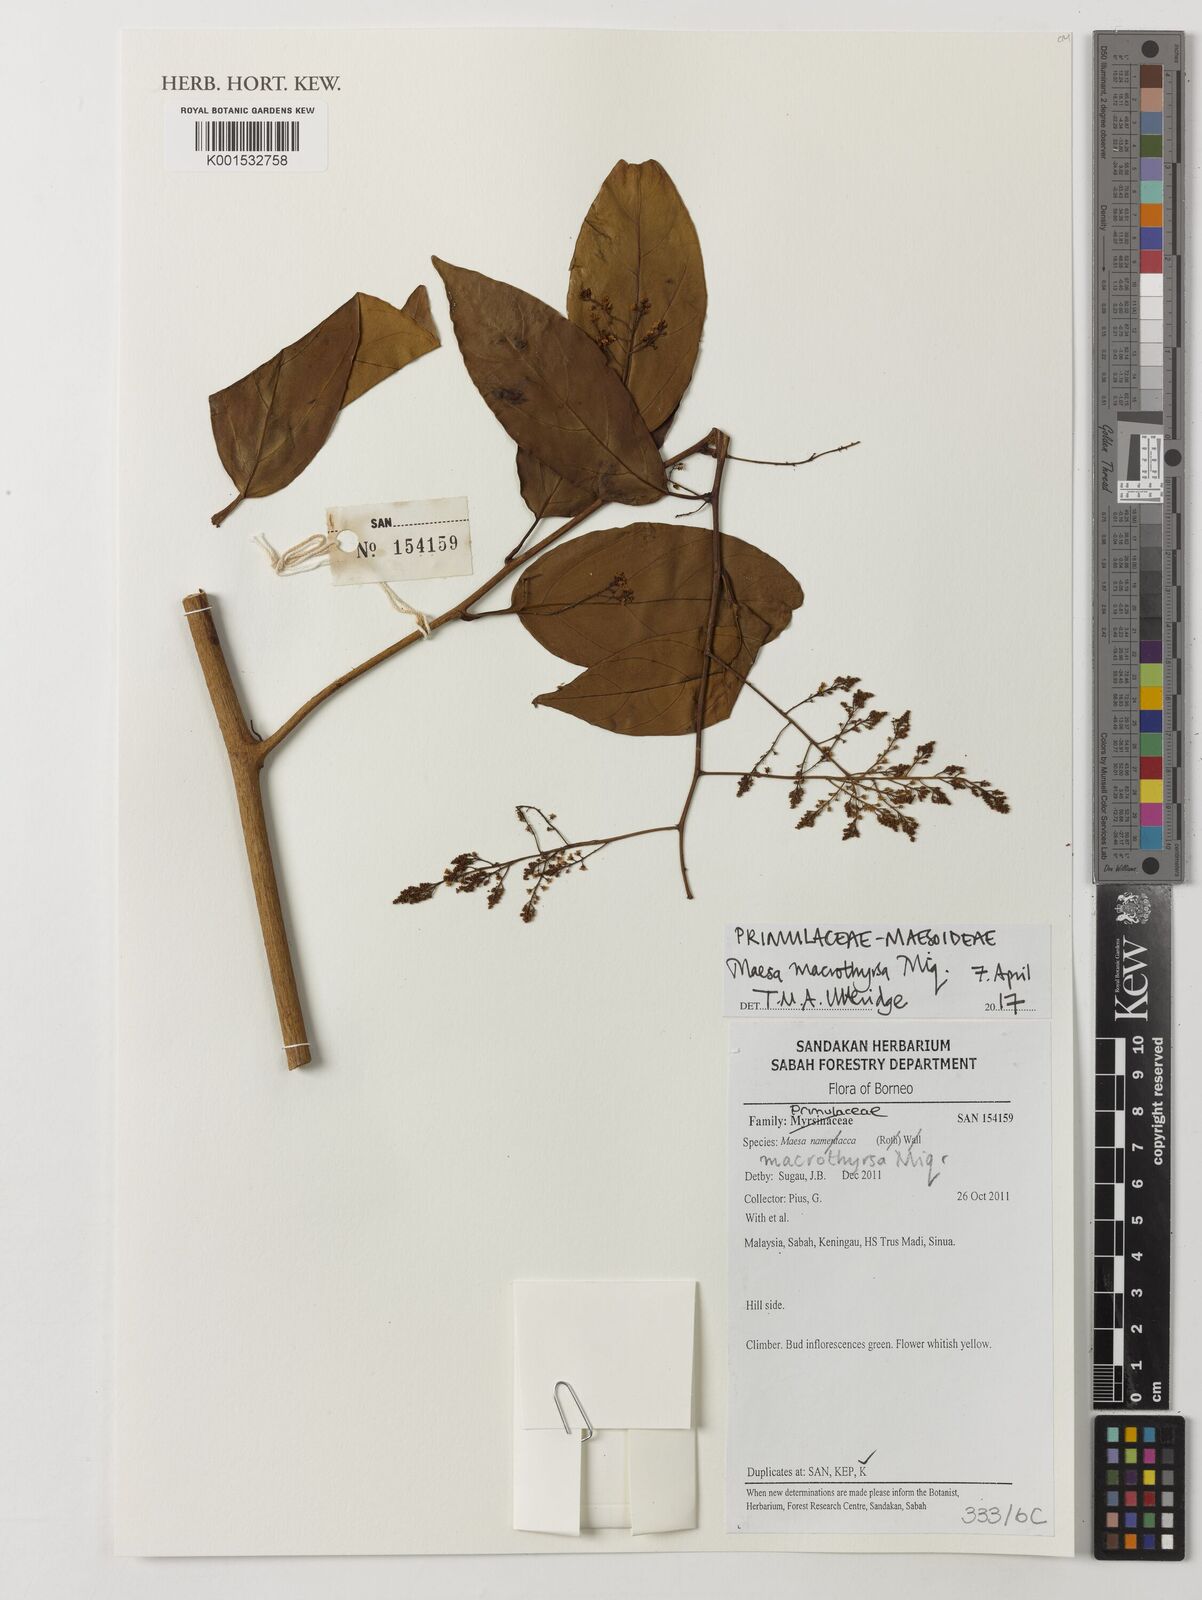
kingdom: Plantae
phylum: Tracheophyta
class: Magnoliopsida
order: Ericales
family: Primulaceae
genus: Maesa
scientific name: Maesa macrothyrsa
